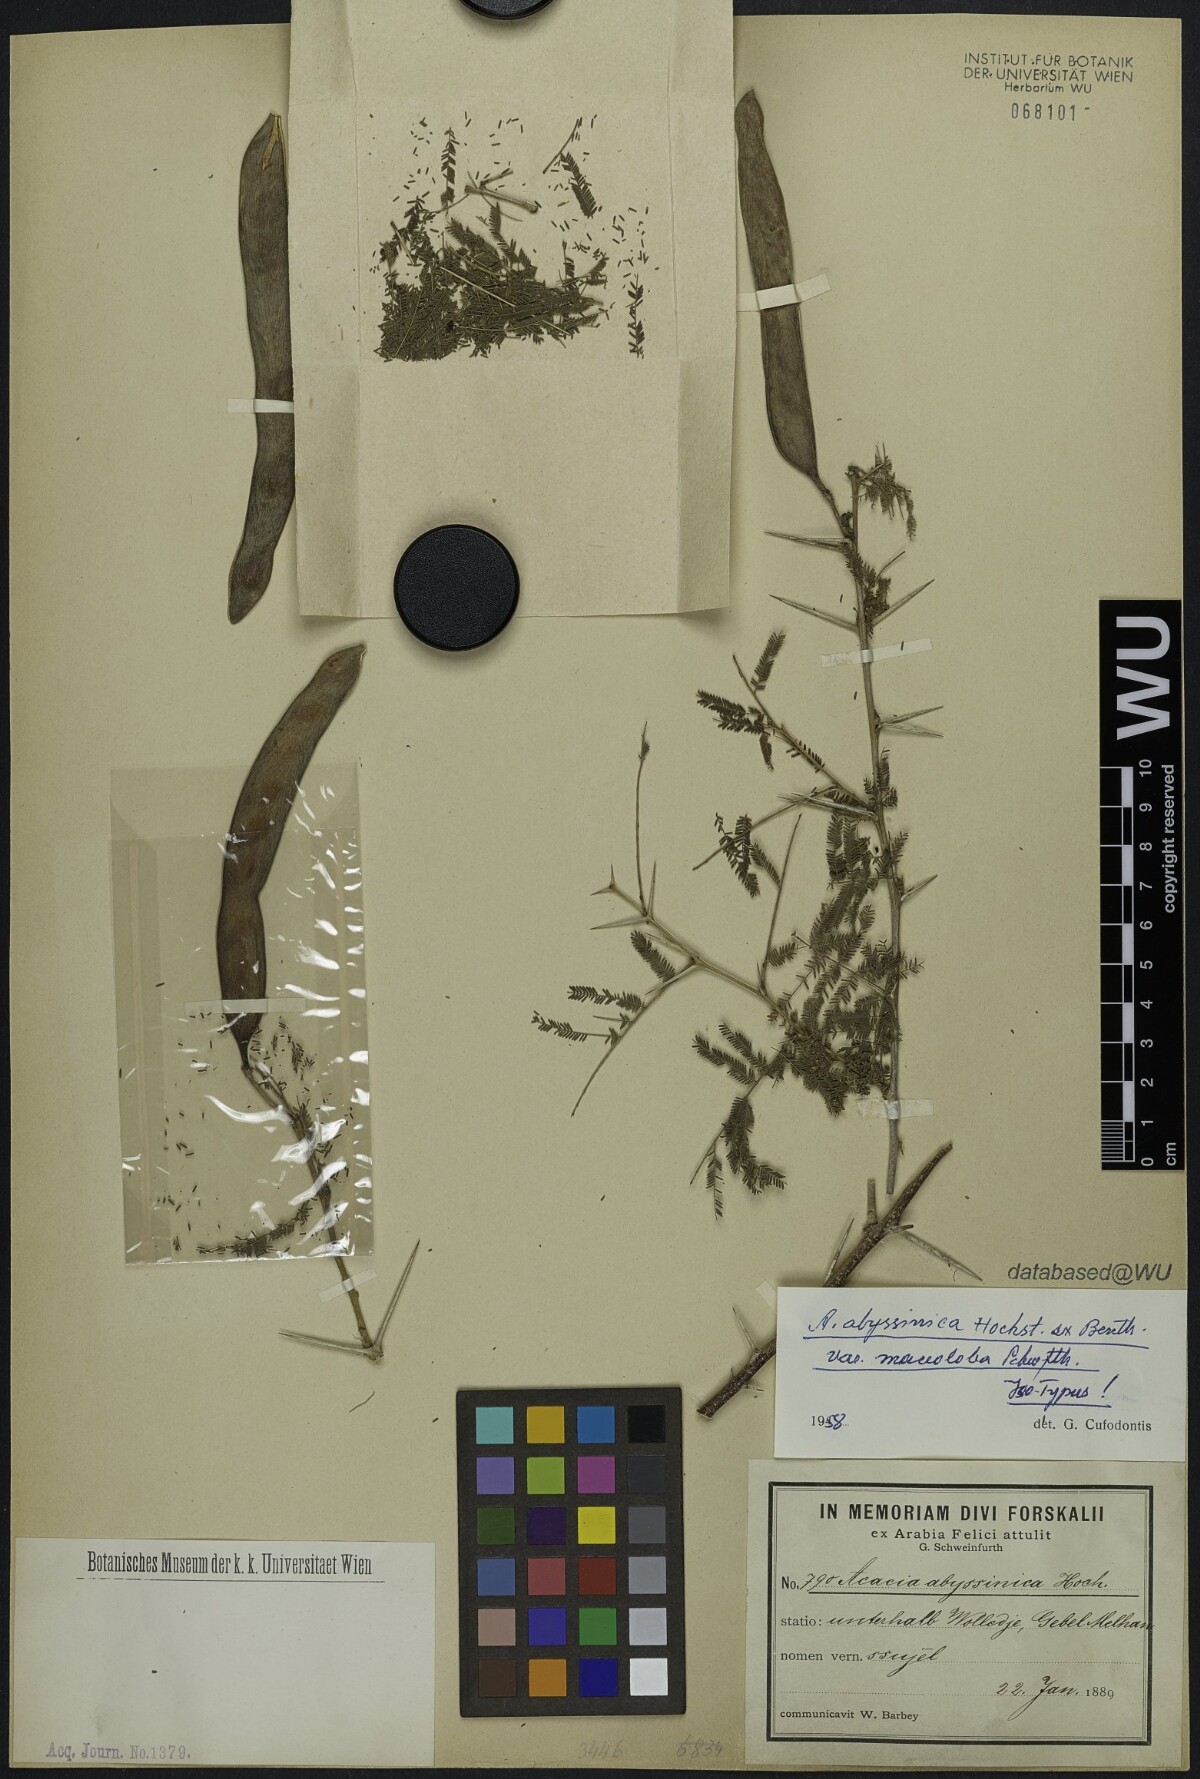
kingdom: Plantae
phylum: Tracheophyta
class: Magnoliopsida
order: Fabales
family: Fabaceae
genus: Vachellia
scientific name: Vachellia johnwoodii
